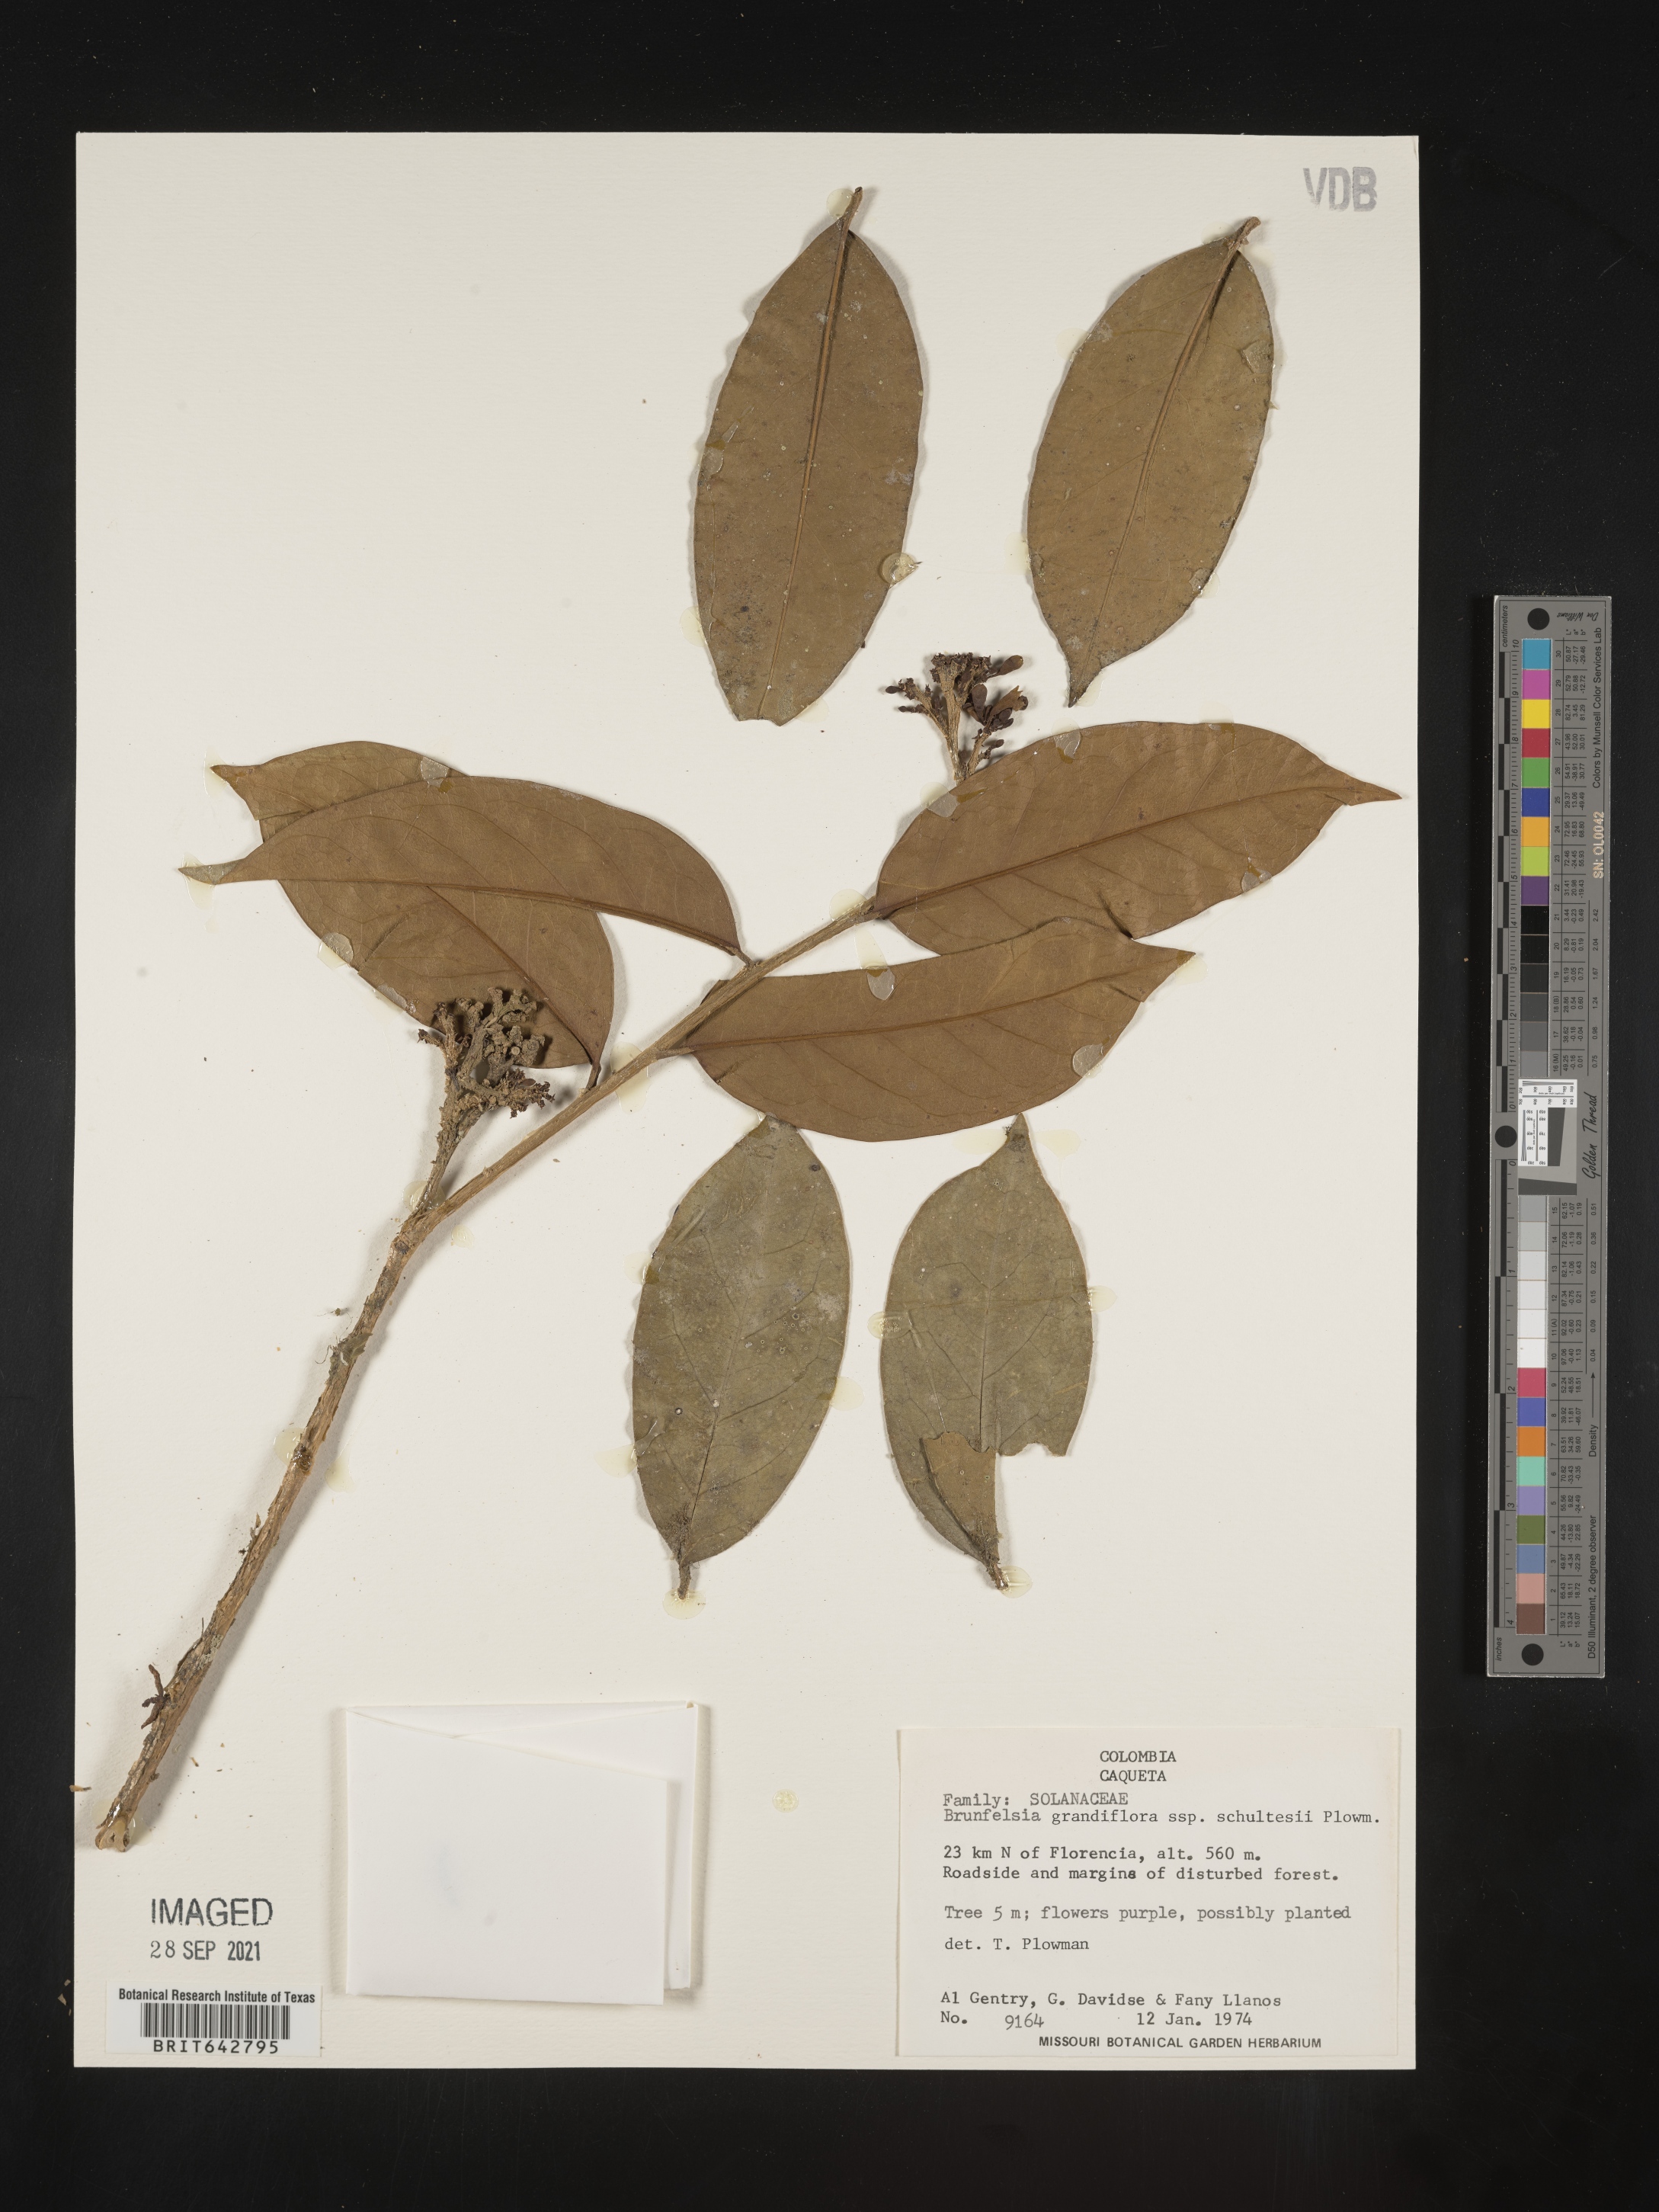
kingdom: Plantae
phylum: Tracheophyta
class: Magnoliopsida
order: Solanales
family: Solanaceae
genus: Brunfelsia
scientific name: Brunfelsia
